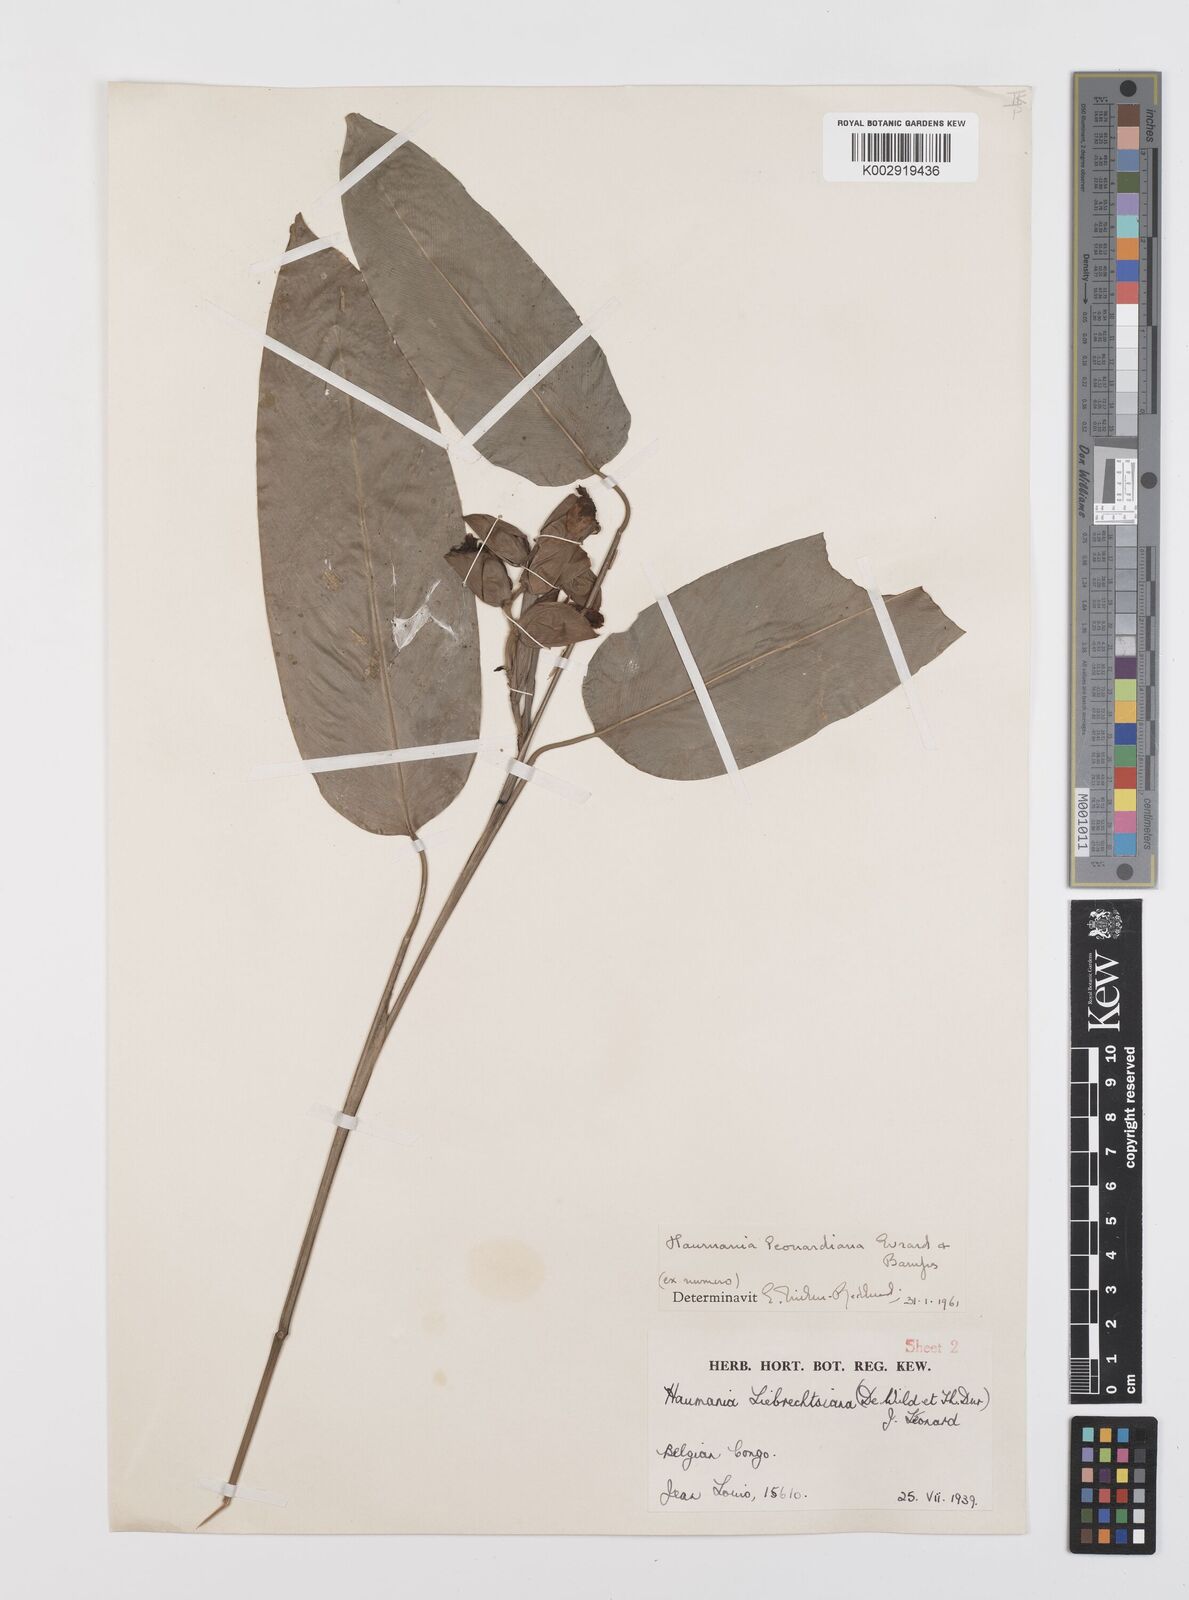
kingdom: Plantae
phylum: Tracheophyta
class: Liliopsida
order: Zingiberales
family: Marantaceae
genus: Haumania
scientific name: Haumania leonardiana
